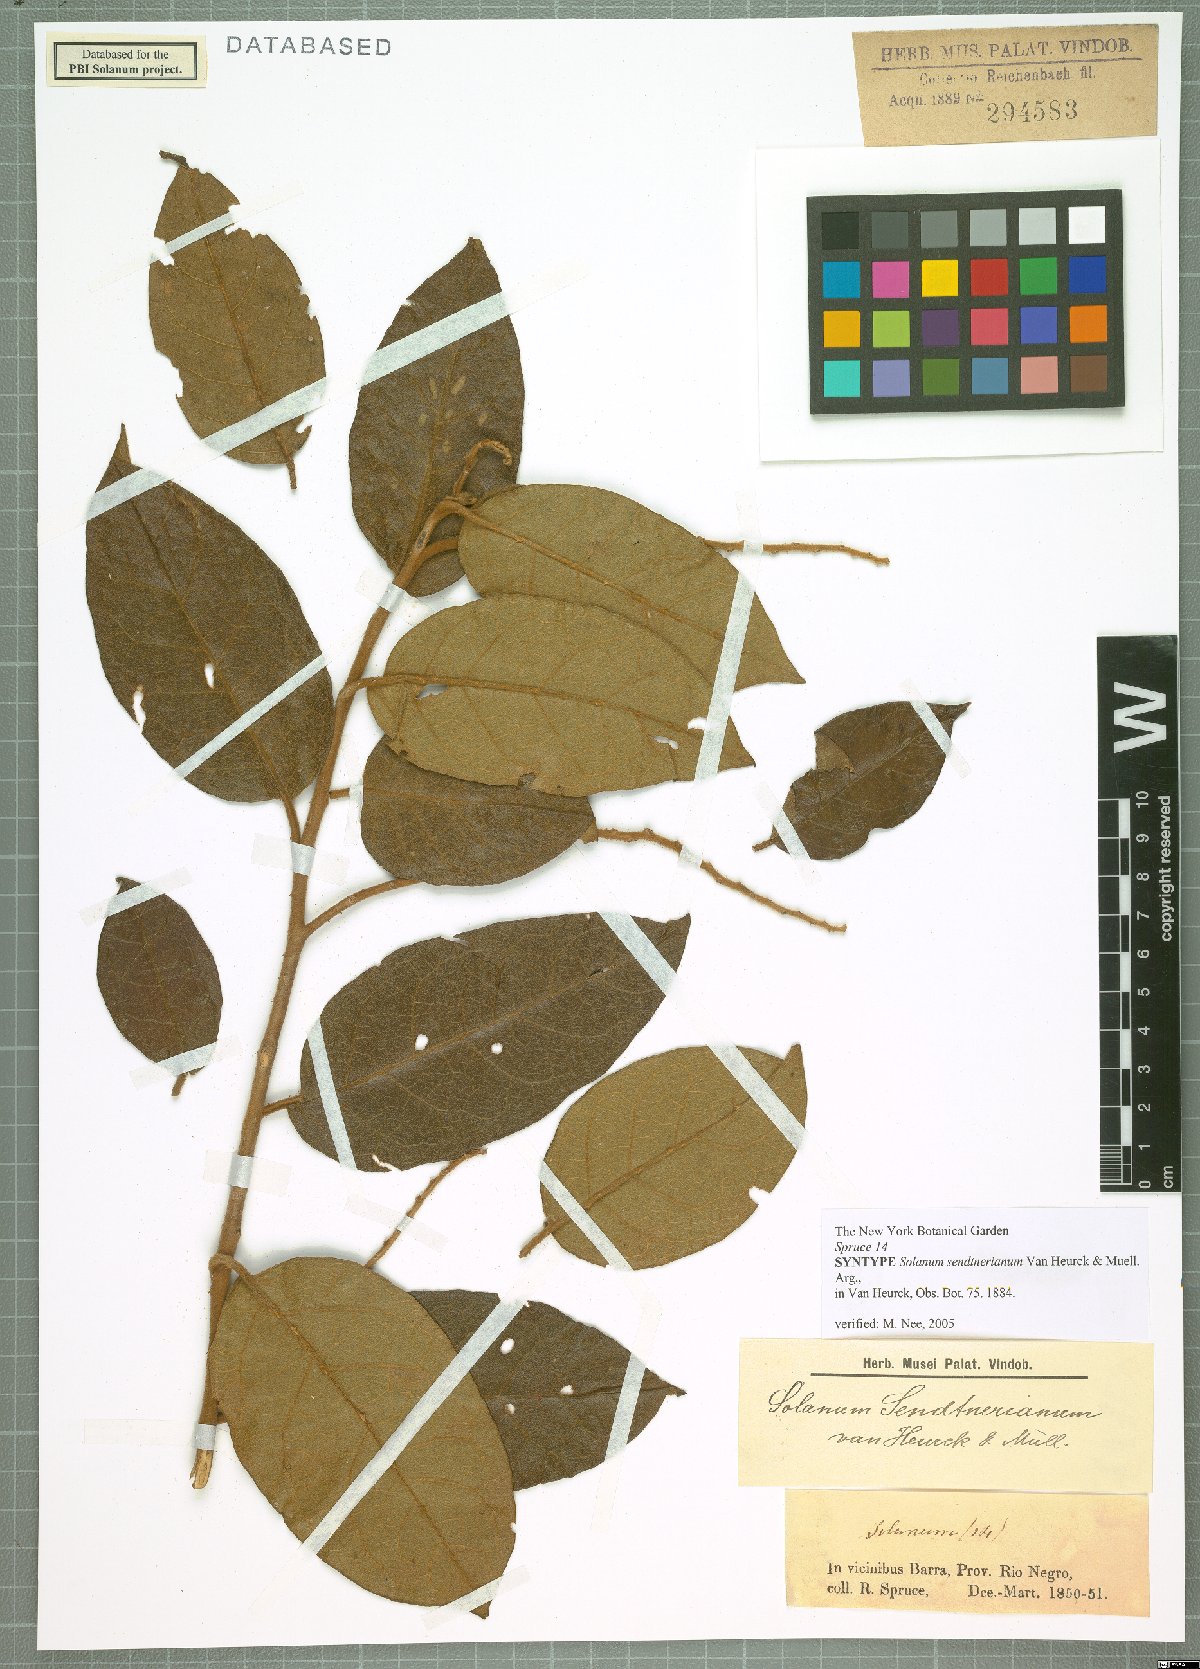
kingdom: Plantae
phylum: Tracheophyta
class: Magnoliopsida
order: Solanales
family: Solanaceae
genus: Solanum
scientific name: Solanum sendtnerianum
